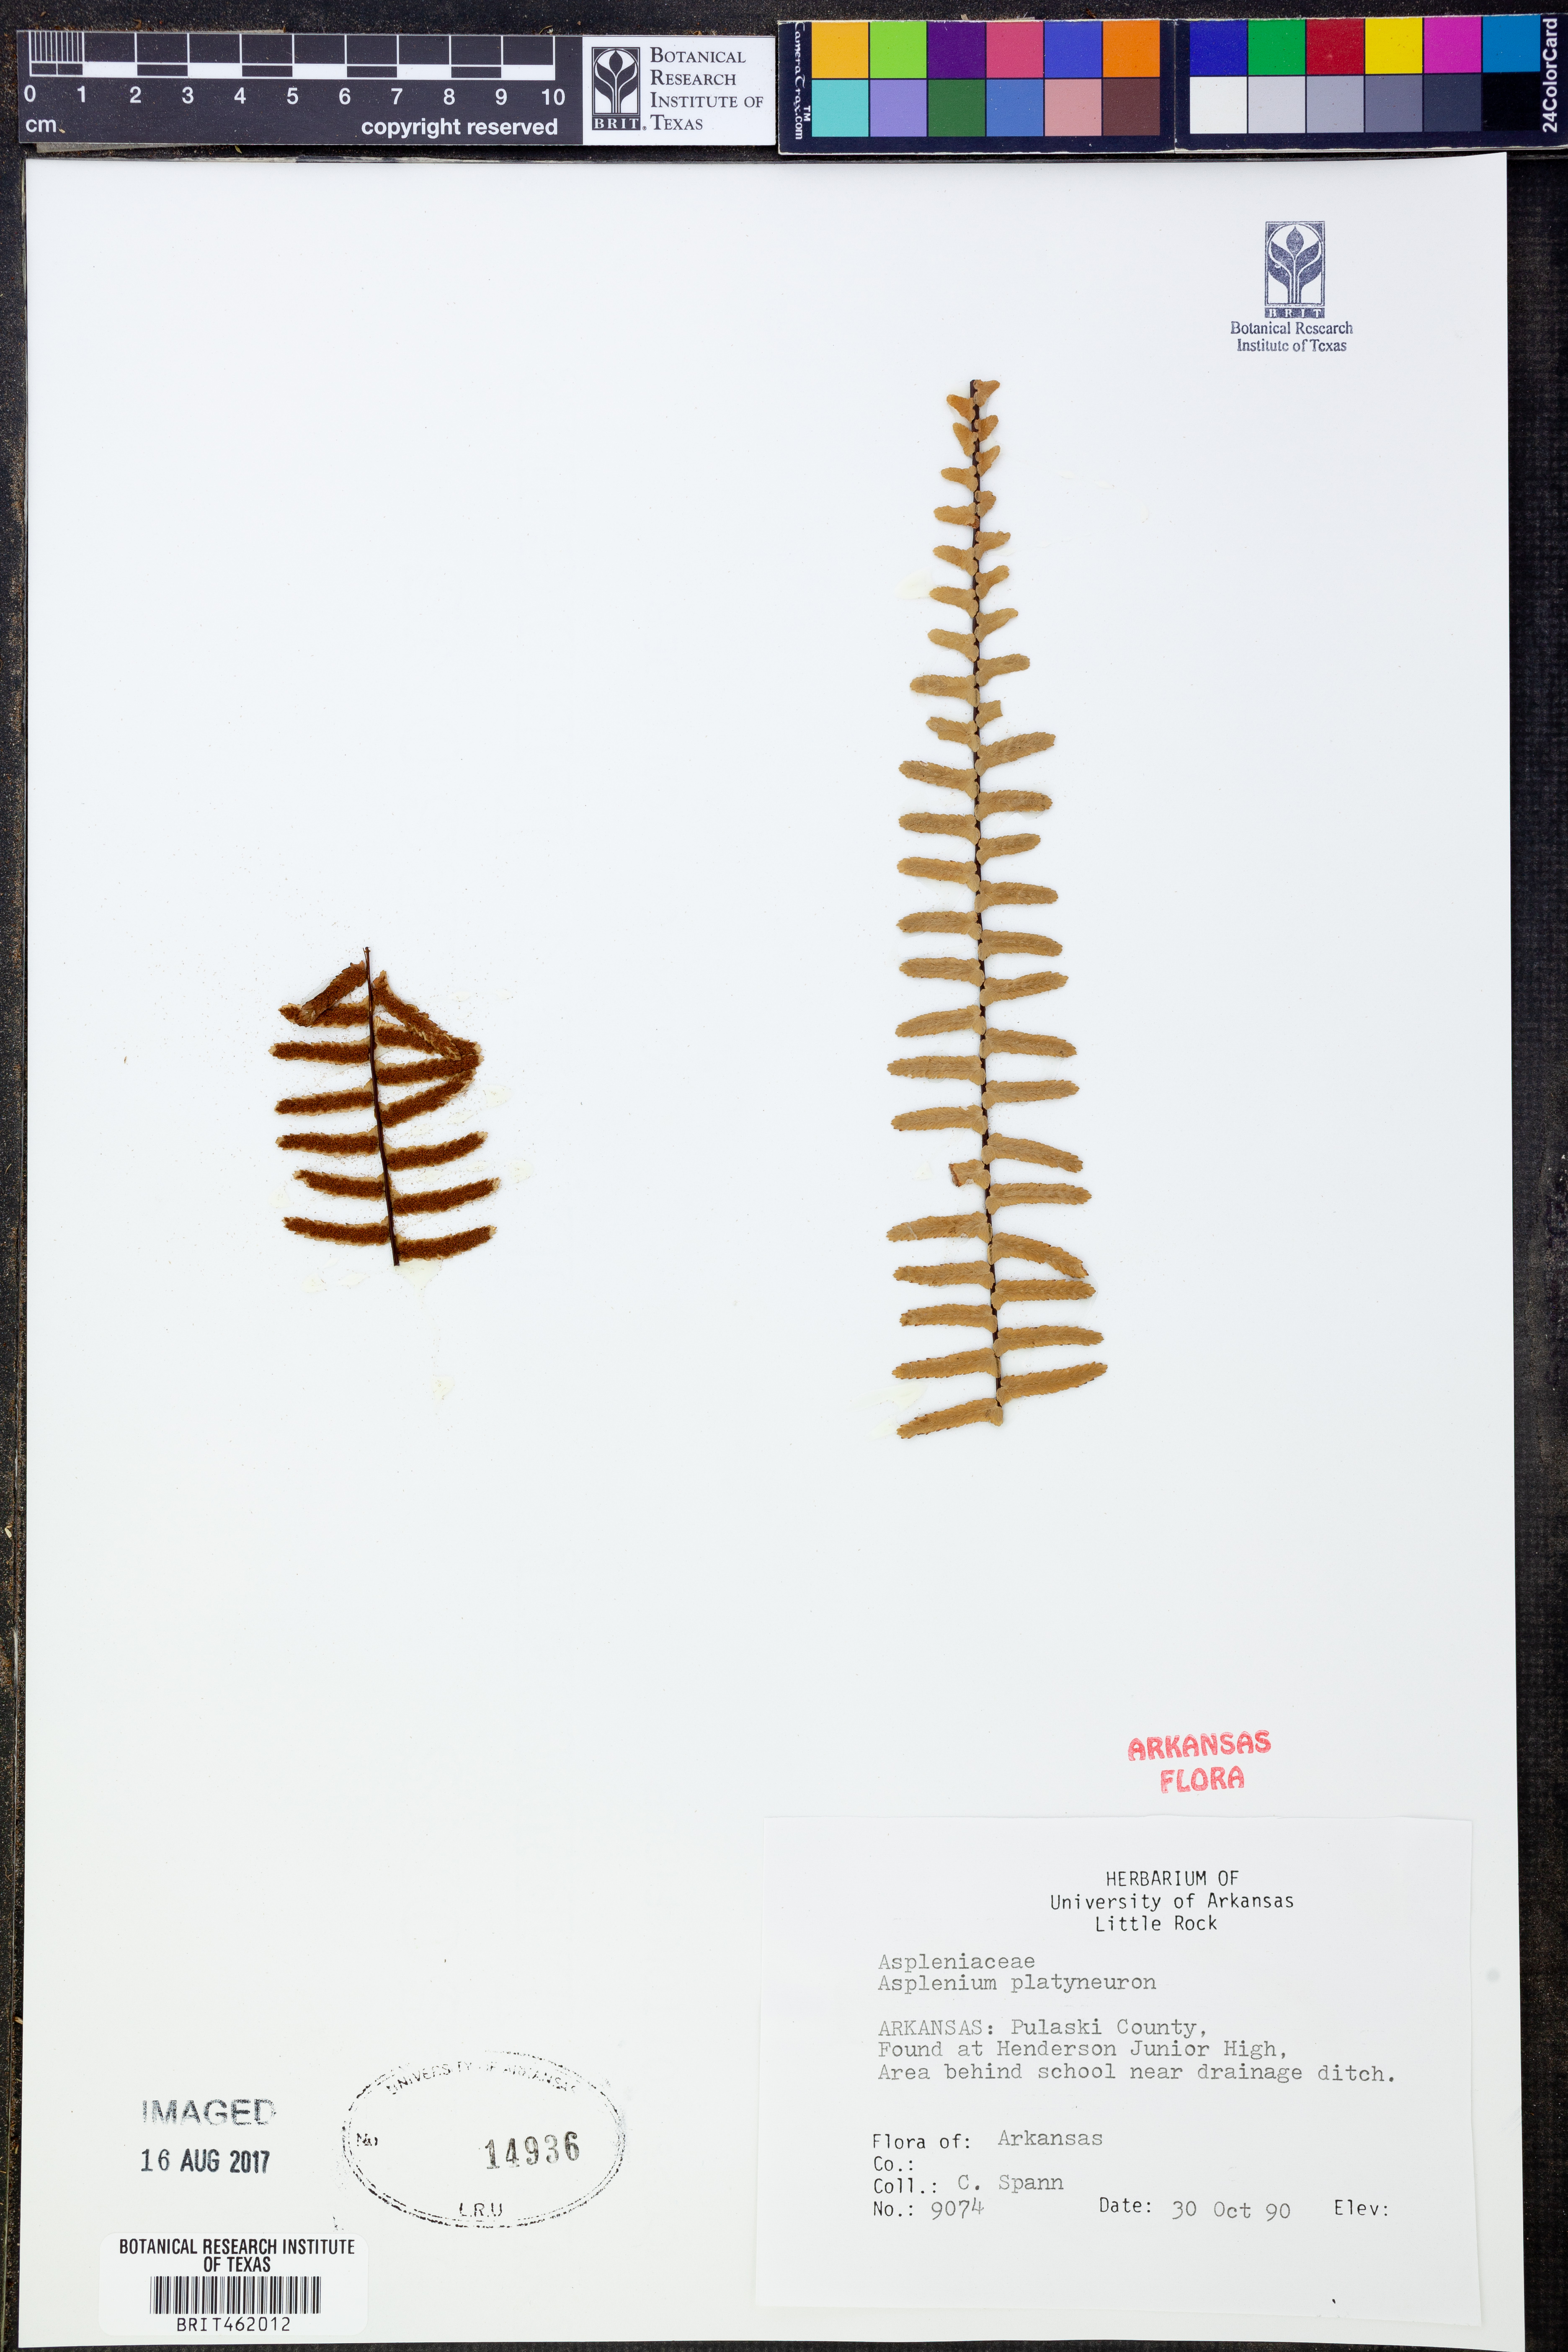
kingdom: Plantae
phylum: Tracheophyta
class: Polypodiopsida
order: Polypodiales
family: Aspleniaceae
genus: Asplenium
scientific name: Asplenium platyneuron
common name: Ebony spleenwort
